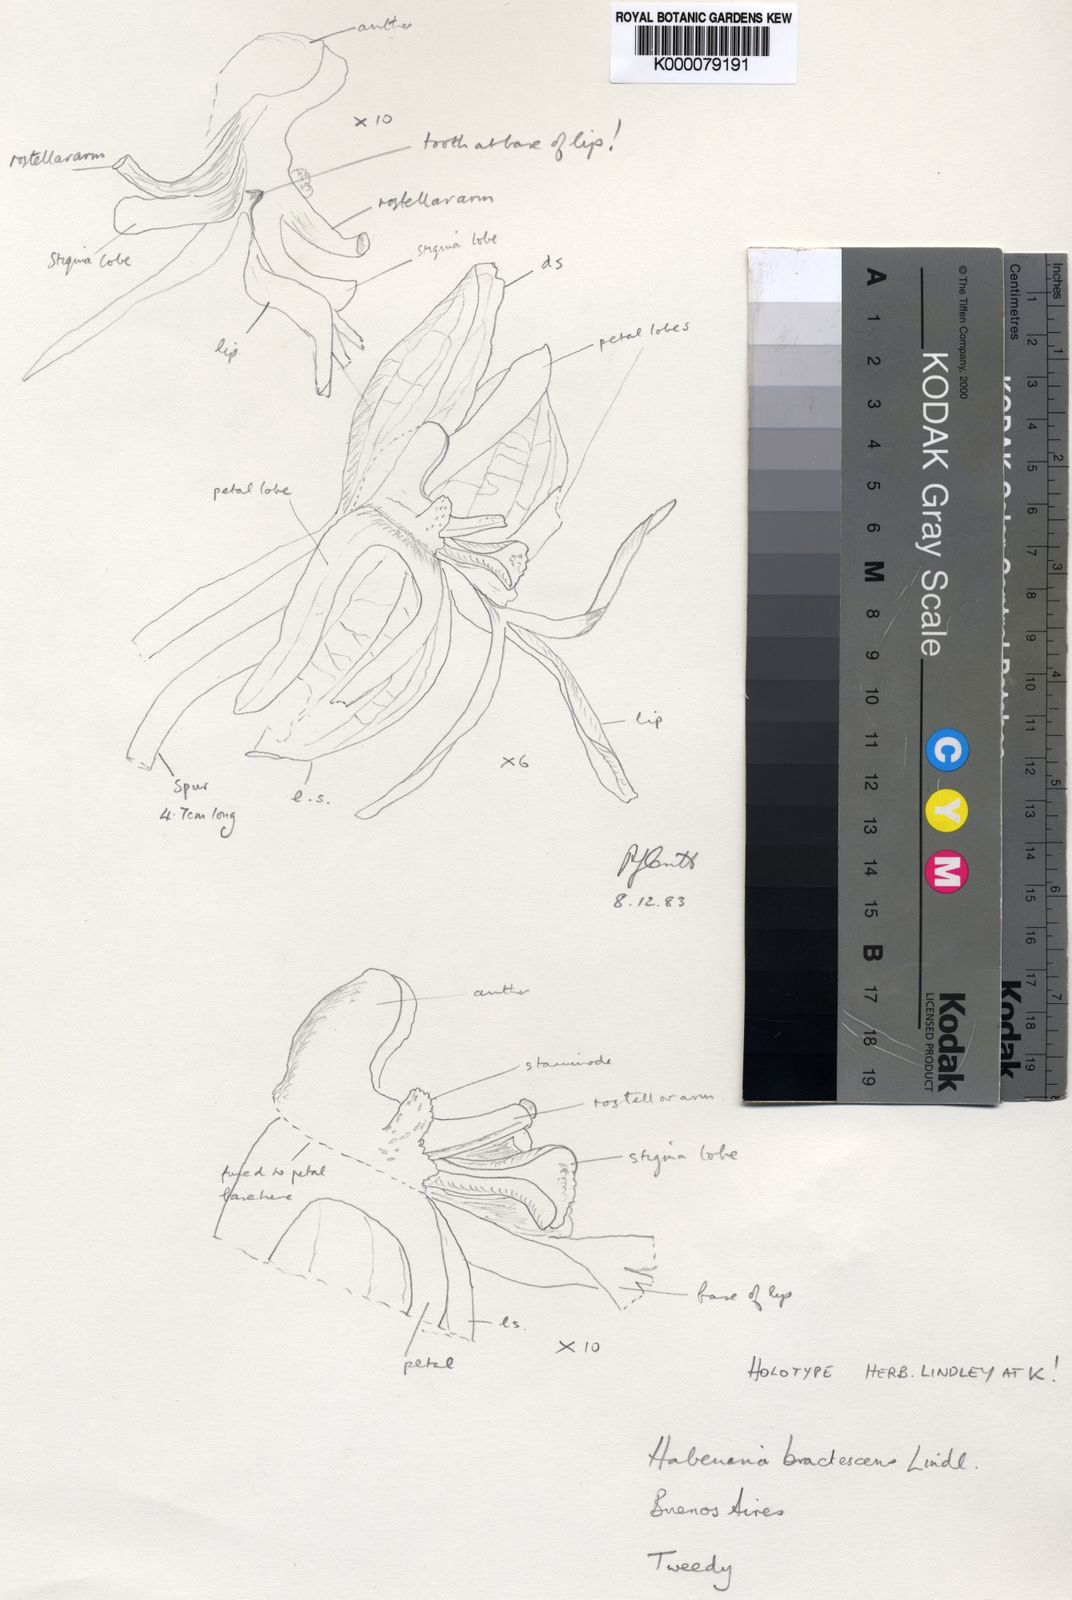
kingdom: Plantae
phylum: Tracheophyta
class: Liliopsida
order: Asparagales
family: Orchidaceae
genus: Habenaria
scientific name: Habenaria bractescens
